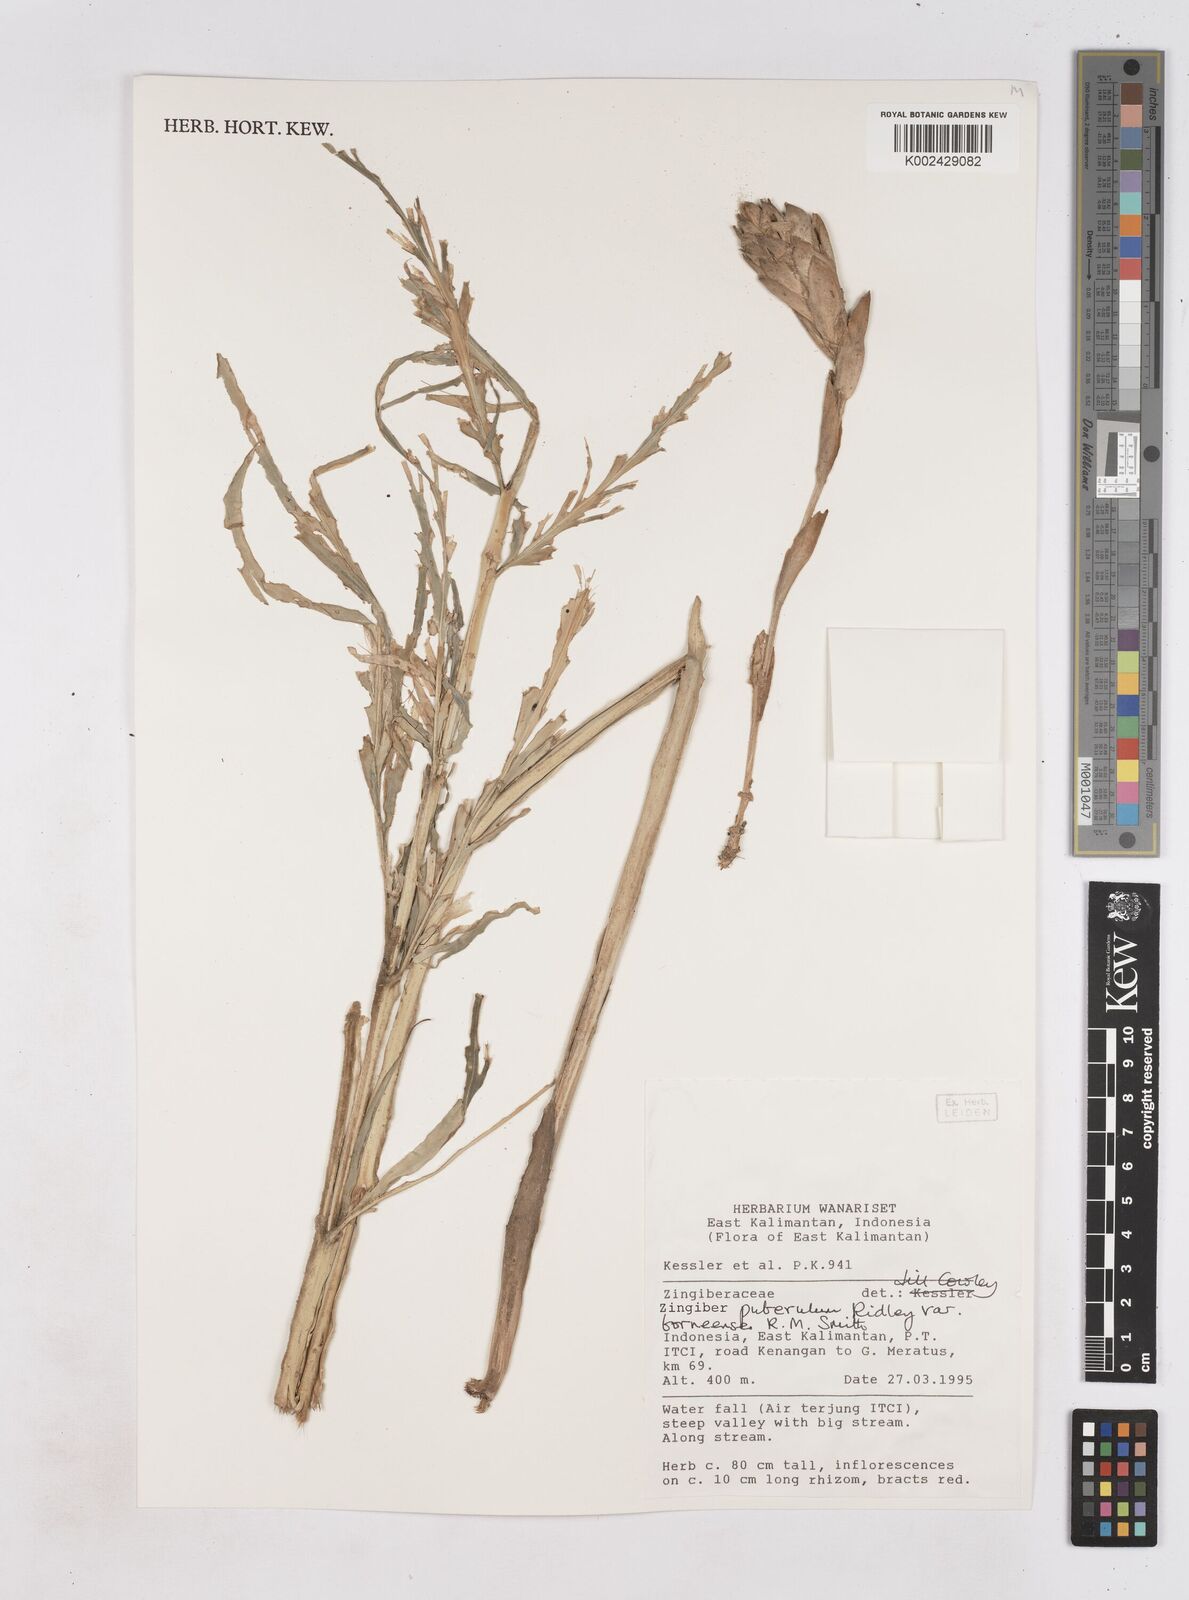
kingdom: Plantae
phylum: Tracheophyta
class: Liliopsida
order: Zingiberales
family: Zingiberaceae
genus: Zingiber
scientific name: Zingiber puberulum
